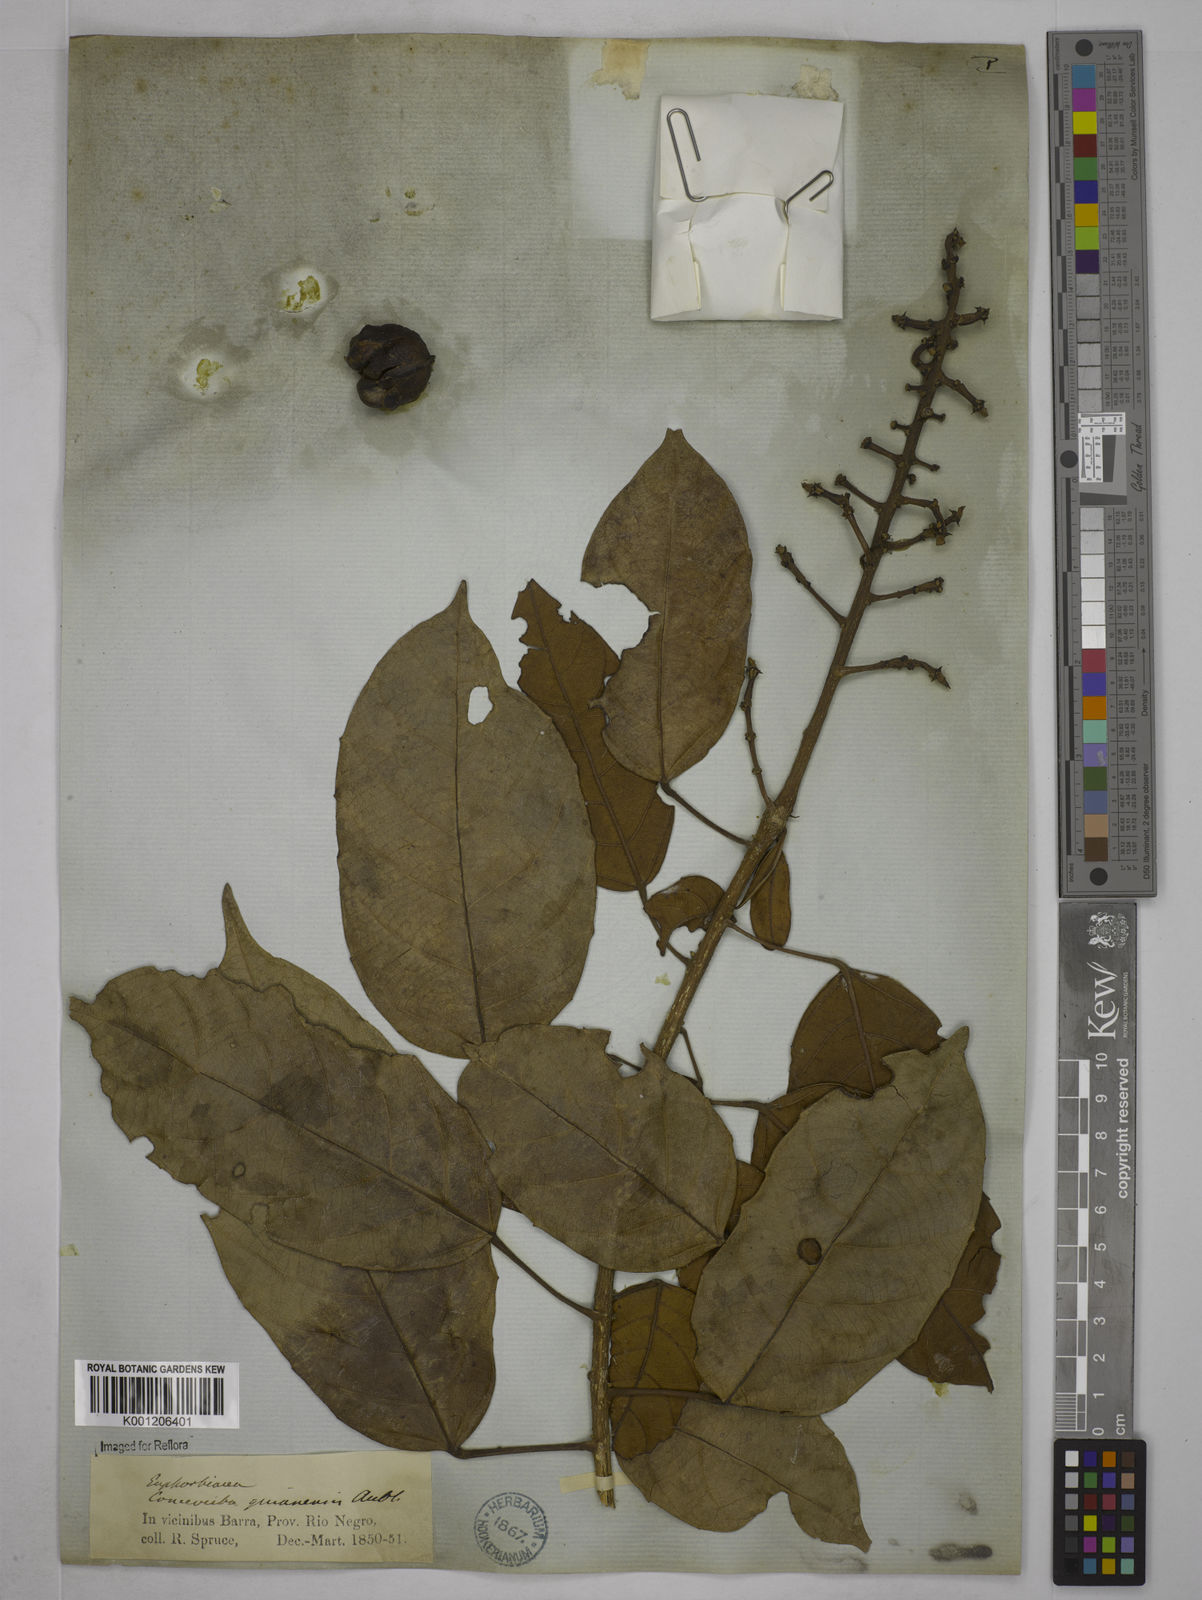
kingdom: Plantae
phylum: Tracheophyta
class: Magnoliopsida
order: Malpighiales
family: Euphorbiaceae
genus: Conceveiba
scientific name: Conceveiba guianensis
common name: Poatoru
